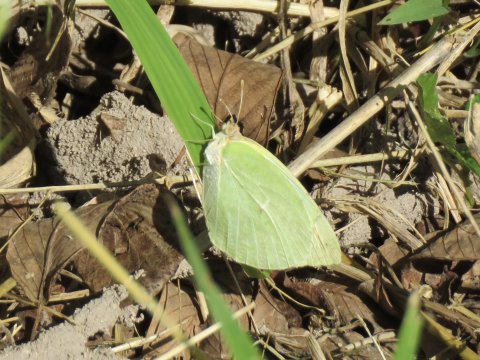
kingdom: Animalia
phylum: Arthropoda
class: Insecta
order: Lepidoptera
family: Pieridae
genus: Kricogonia
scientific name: Kricogonia lyside
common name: Lyside Sulphur
